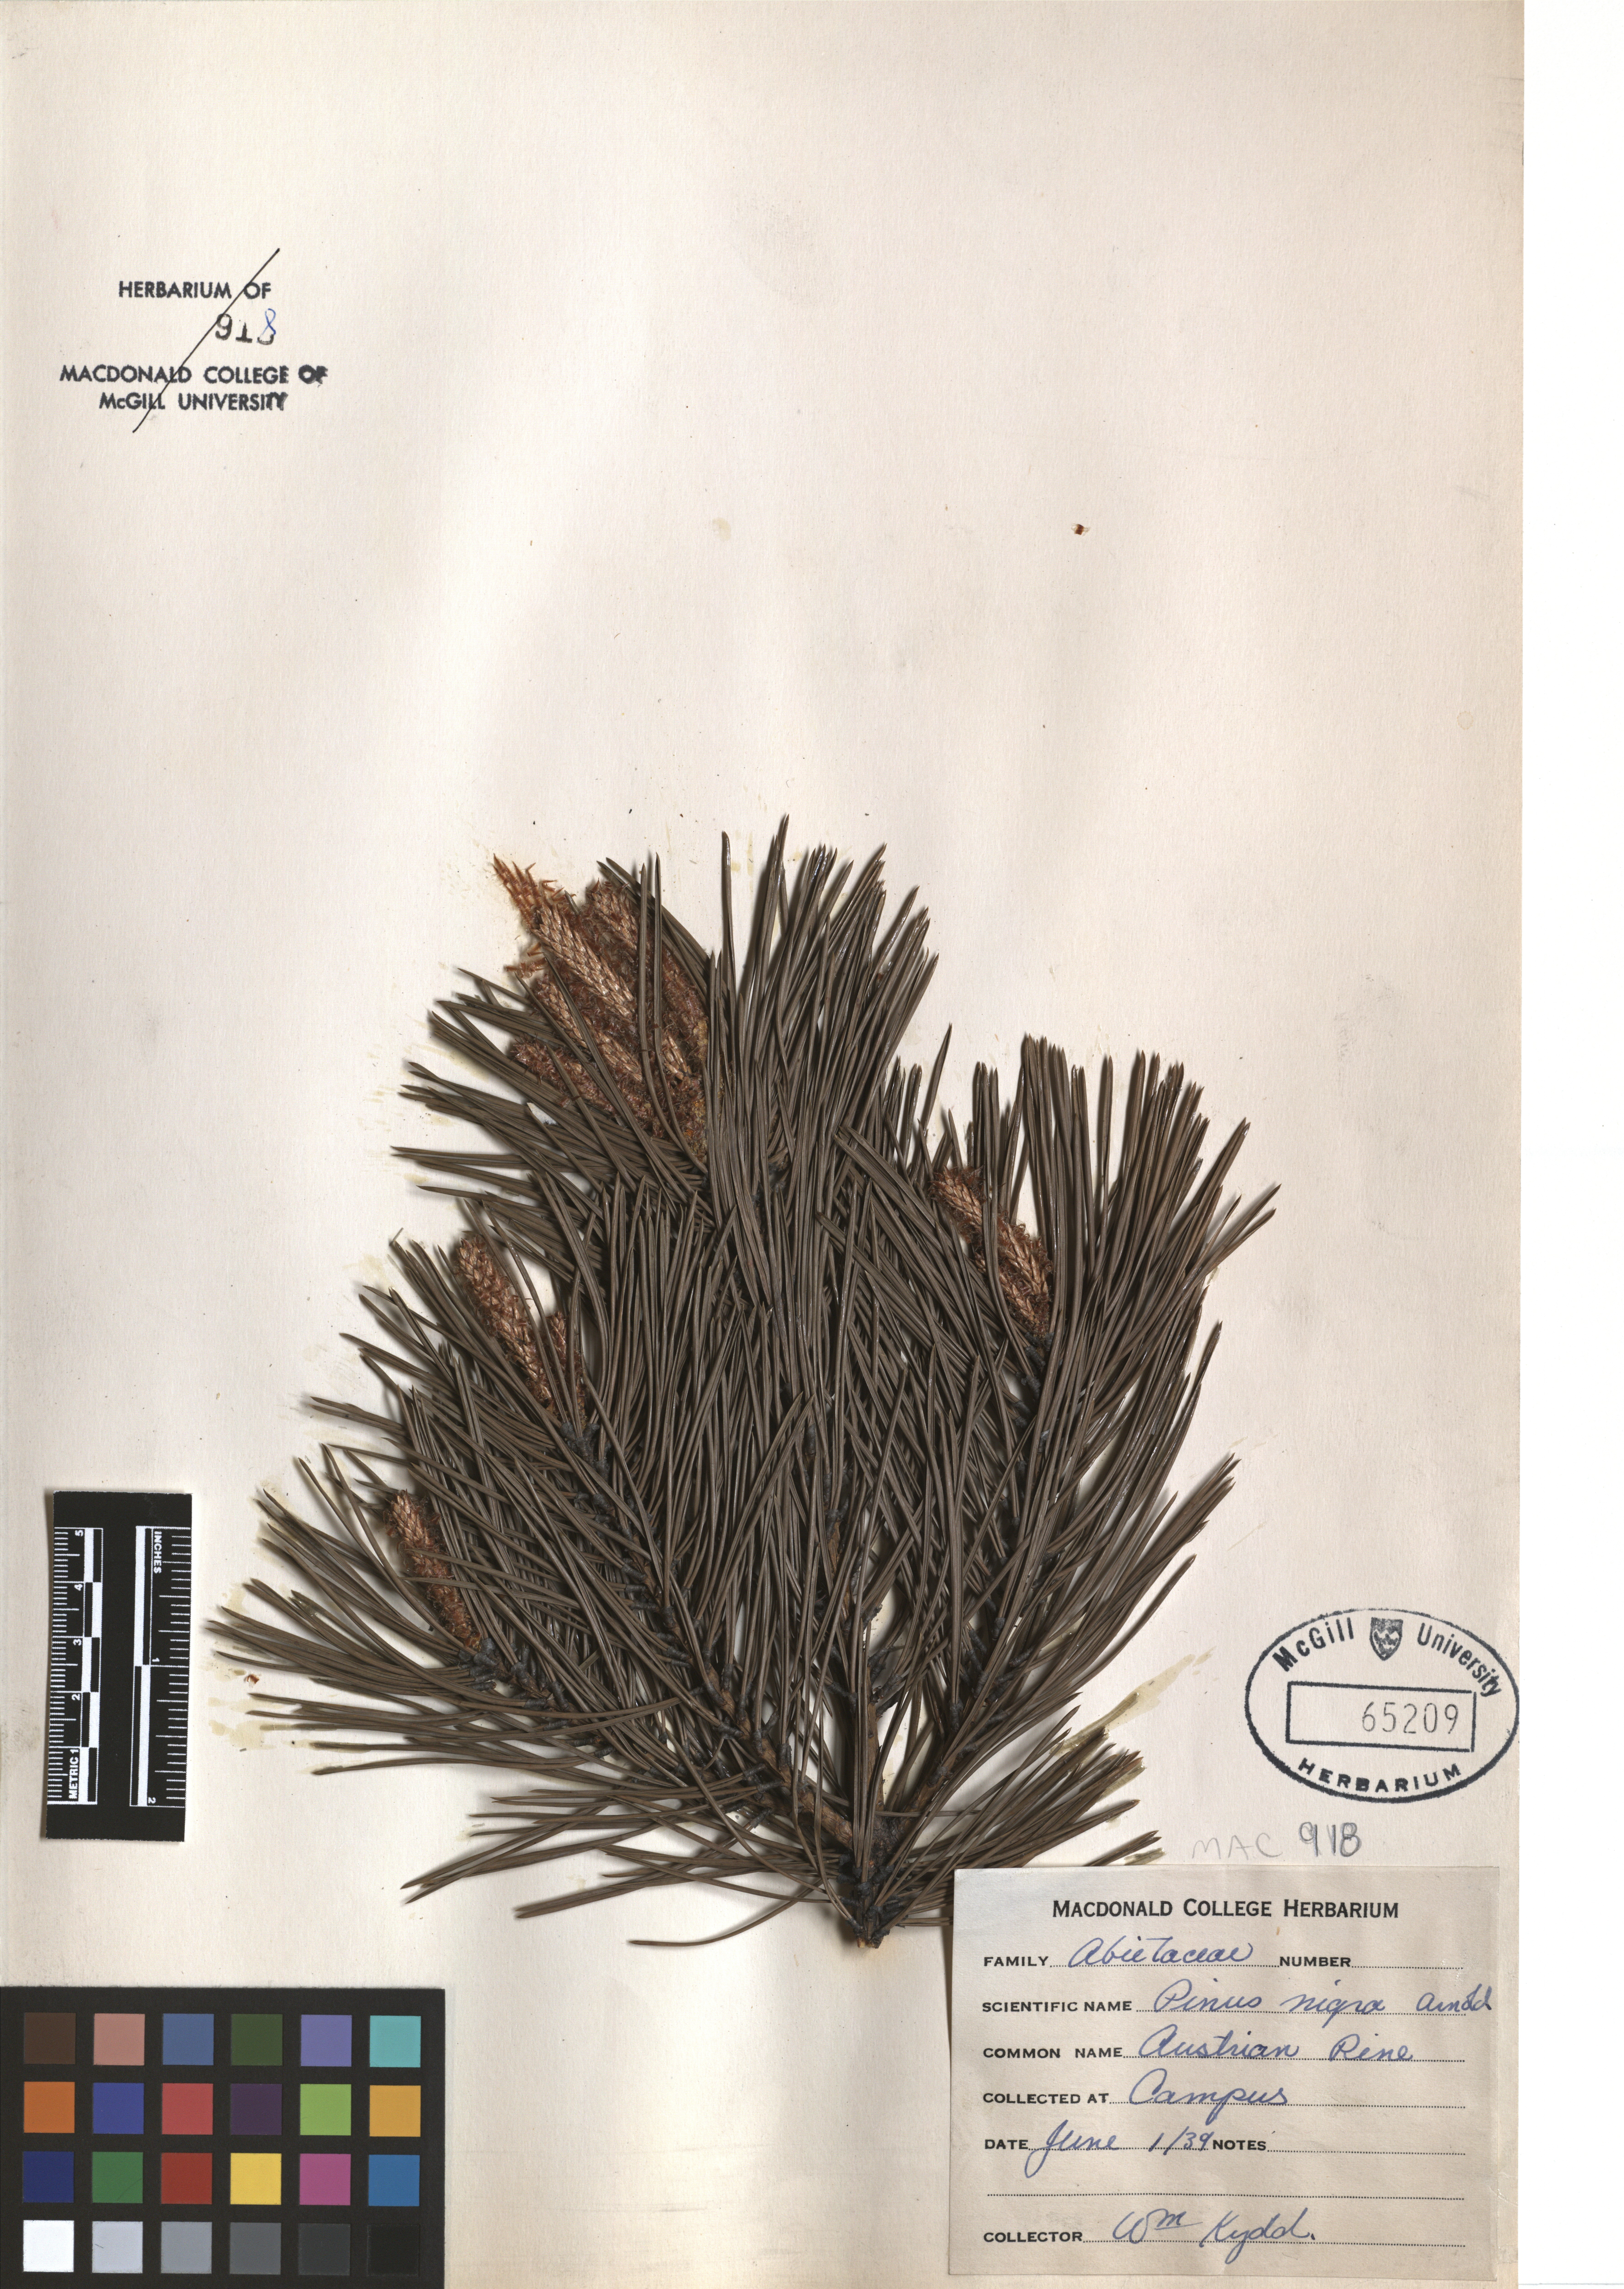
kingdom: Plantae
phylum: Tracheophyta
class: Pinopsida
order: Pinales
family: Pinaceae
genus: Pinus
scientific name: Pinus nigra
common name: Austrian pine
